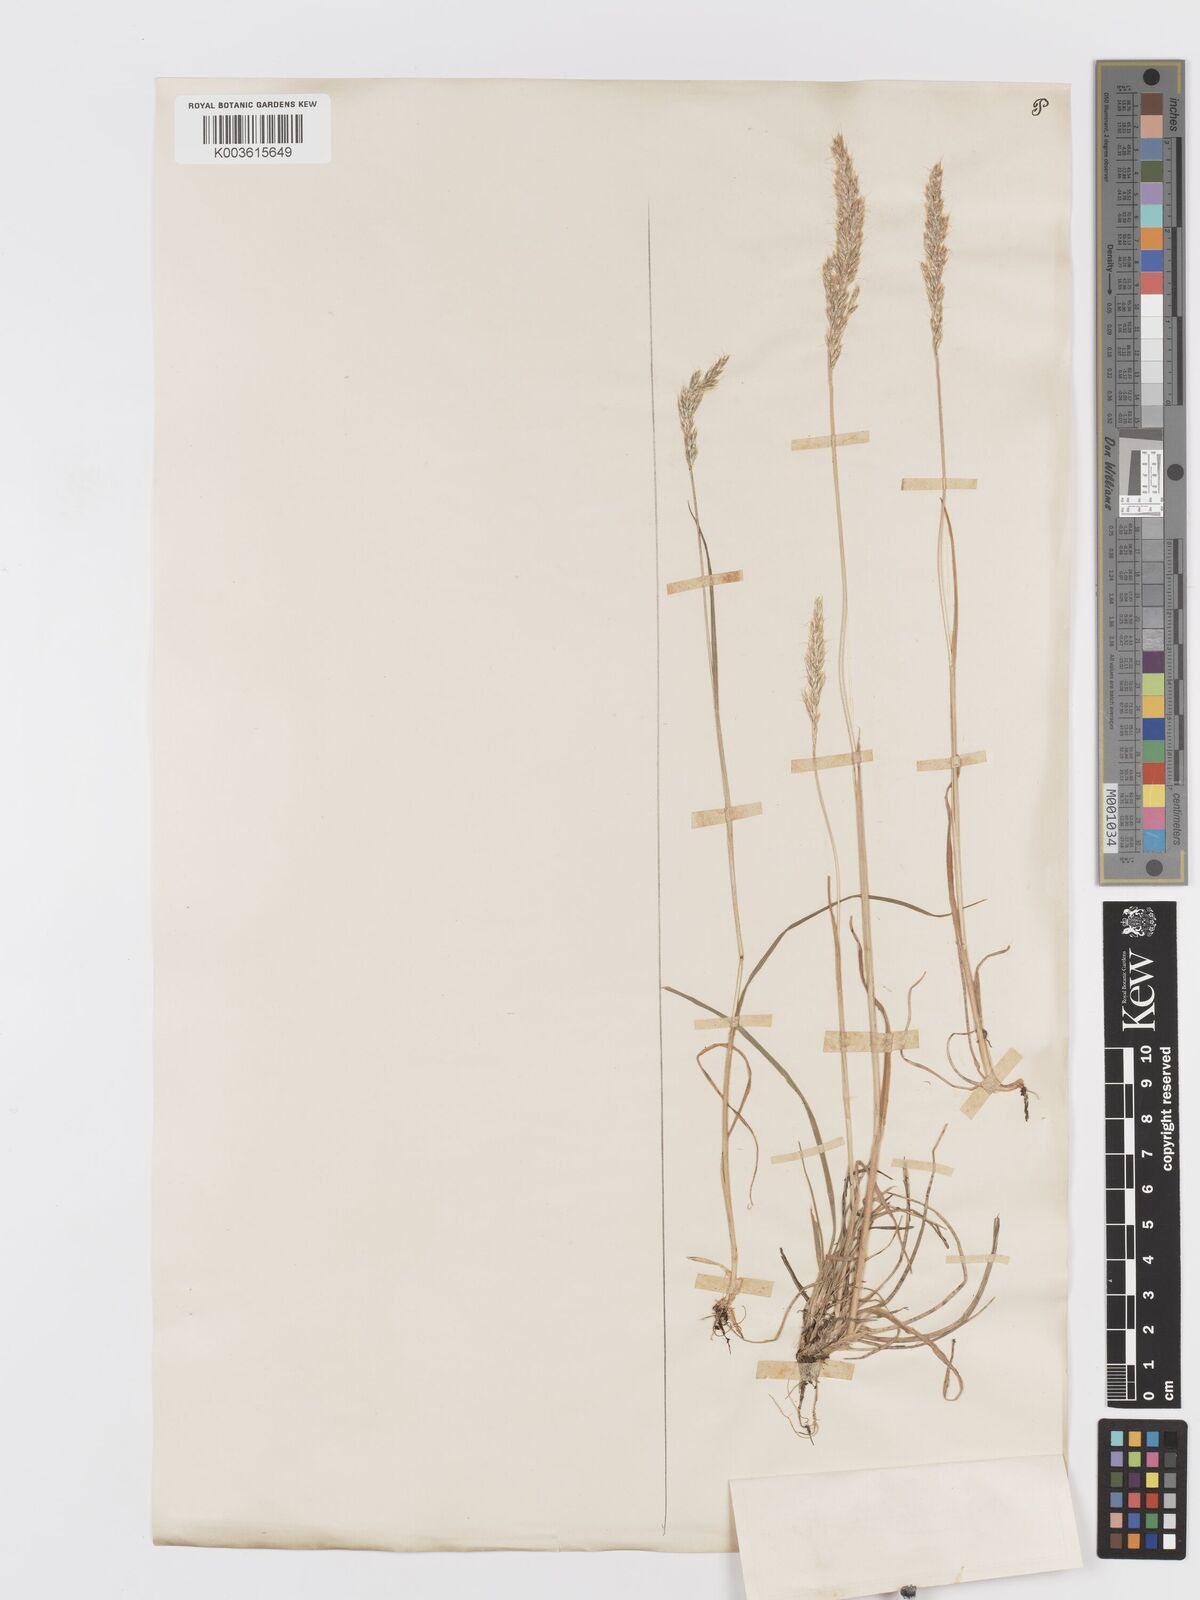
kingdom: Plantae
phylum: Tracheophyta
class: Liliopsida
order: Poales
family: Poaceae
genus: Koeleria
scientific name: Koeleria spicata
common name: Mountain trisetum
